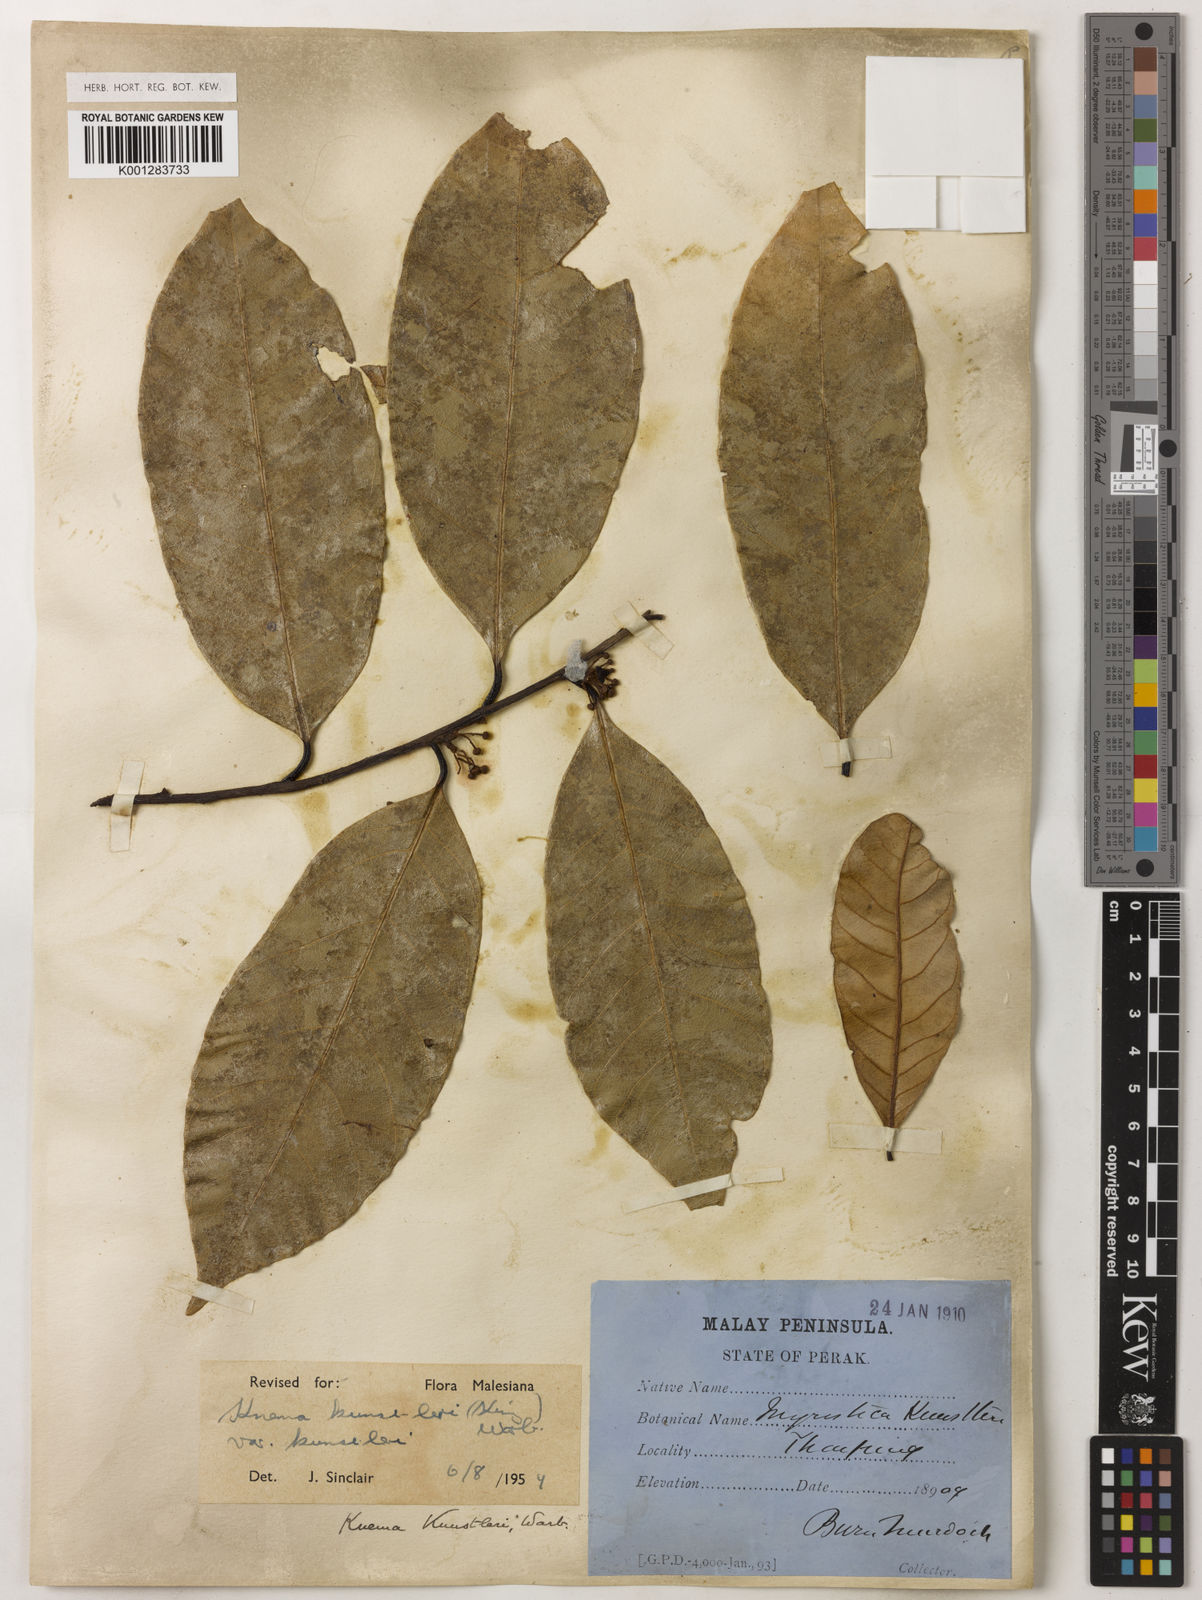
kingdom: Plantae
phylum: Tracheophyta
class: Magnoliopsida
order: Magnoliales
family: Myristicaceae
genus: Knema
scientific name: Knema kunstleri
